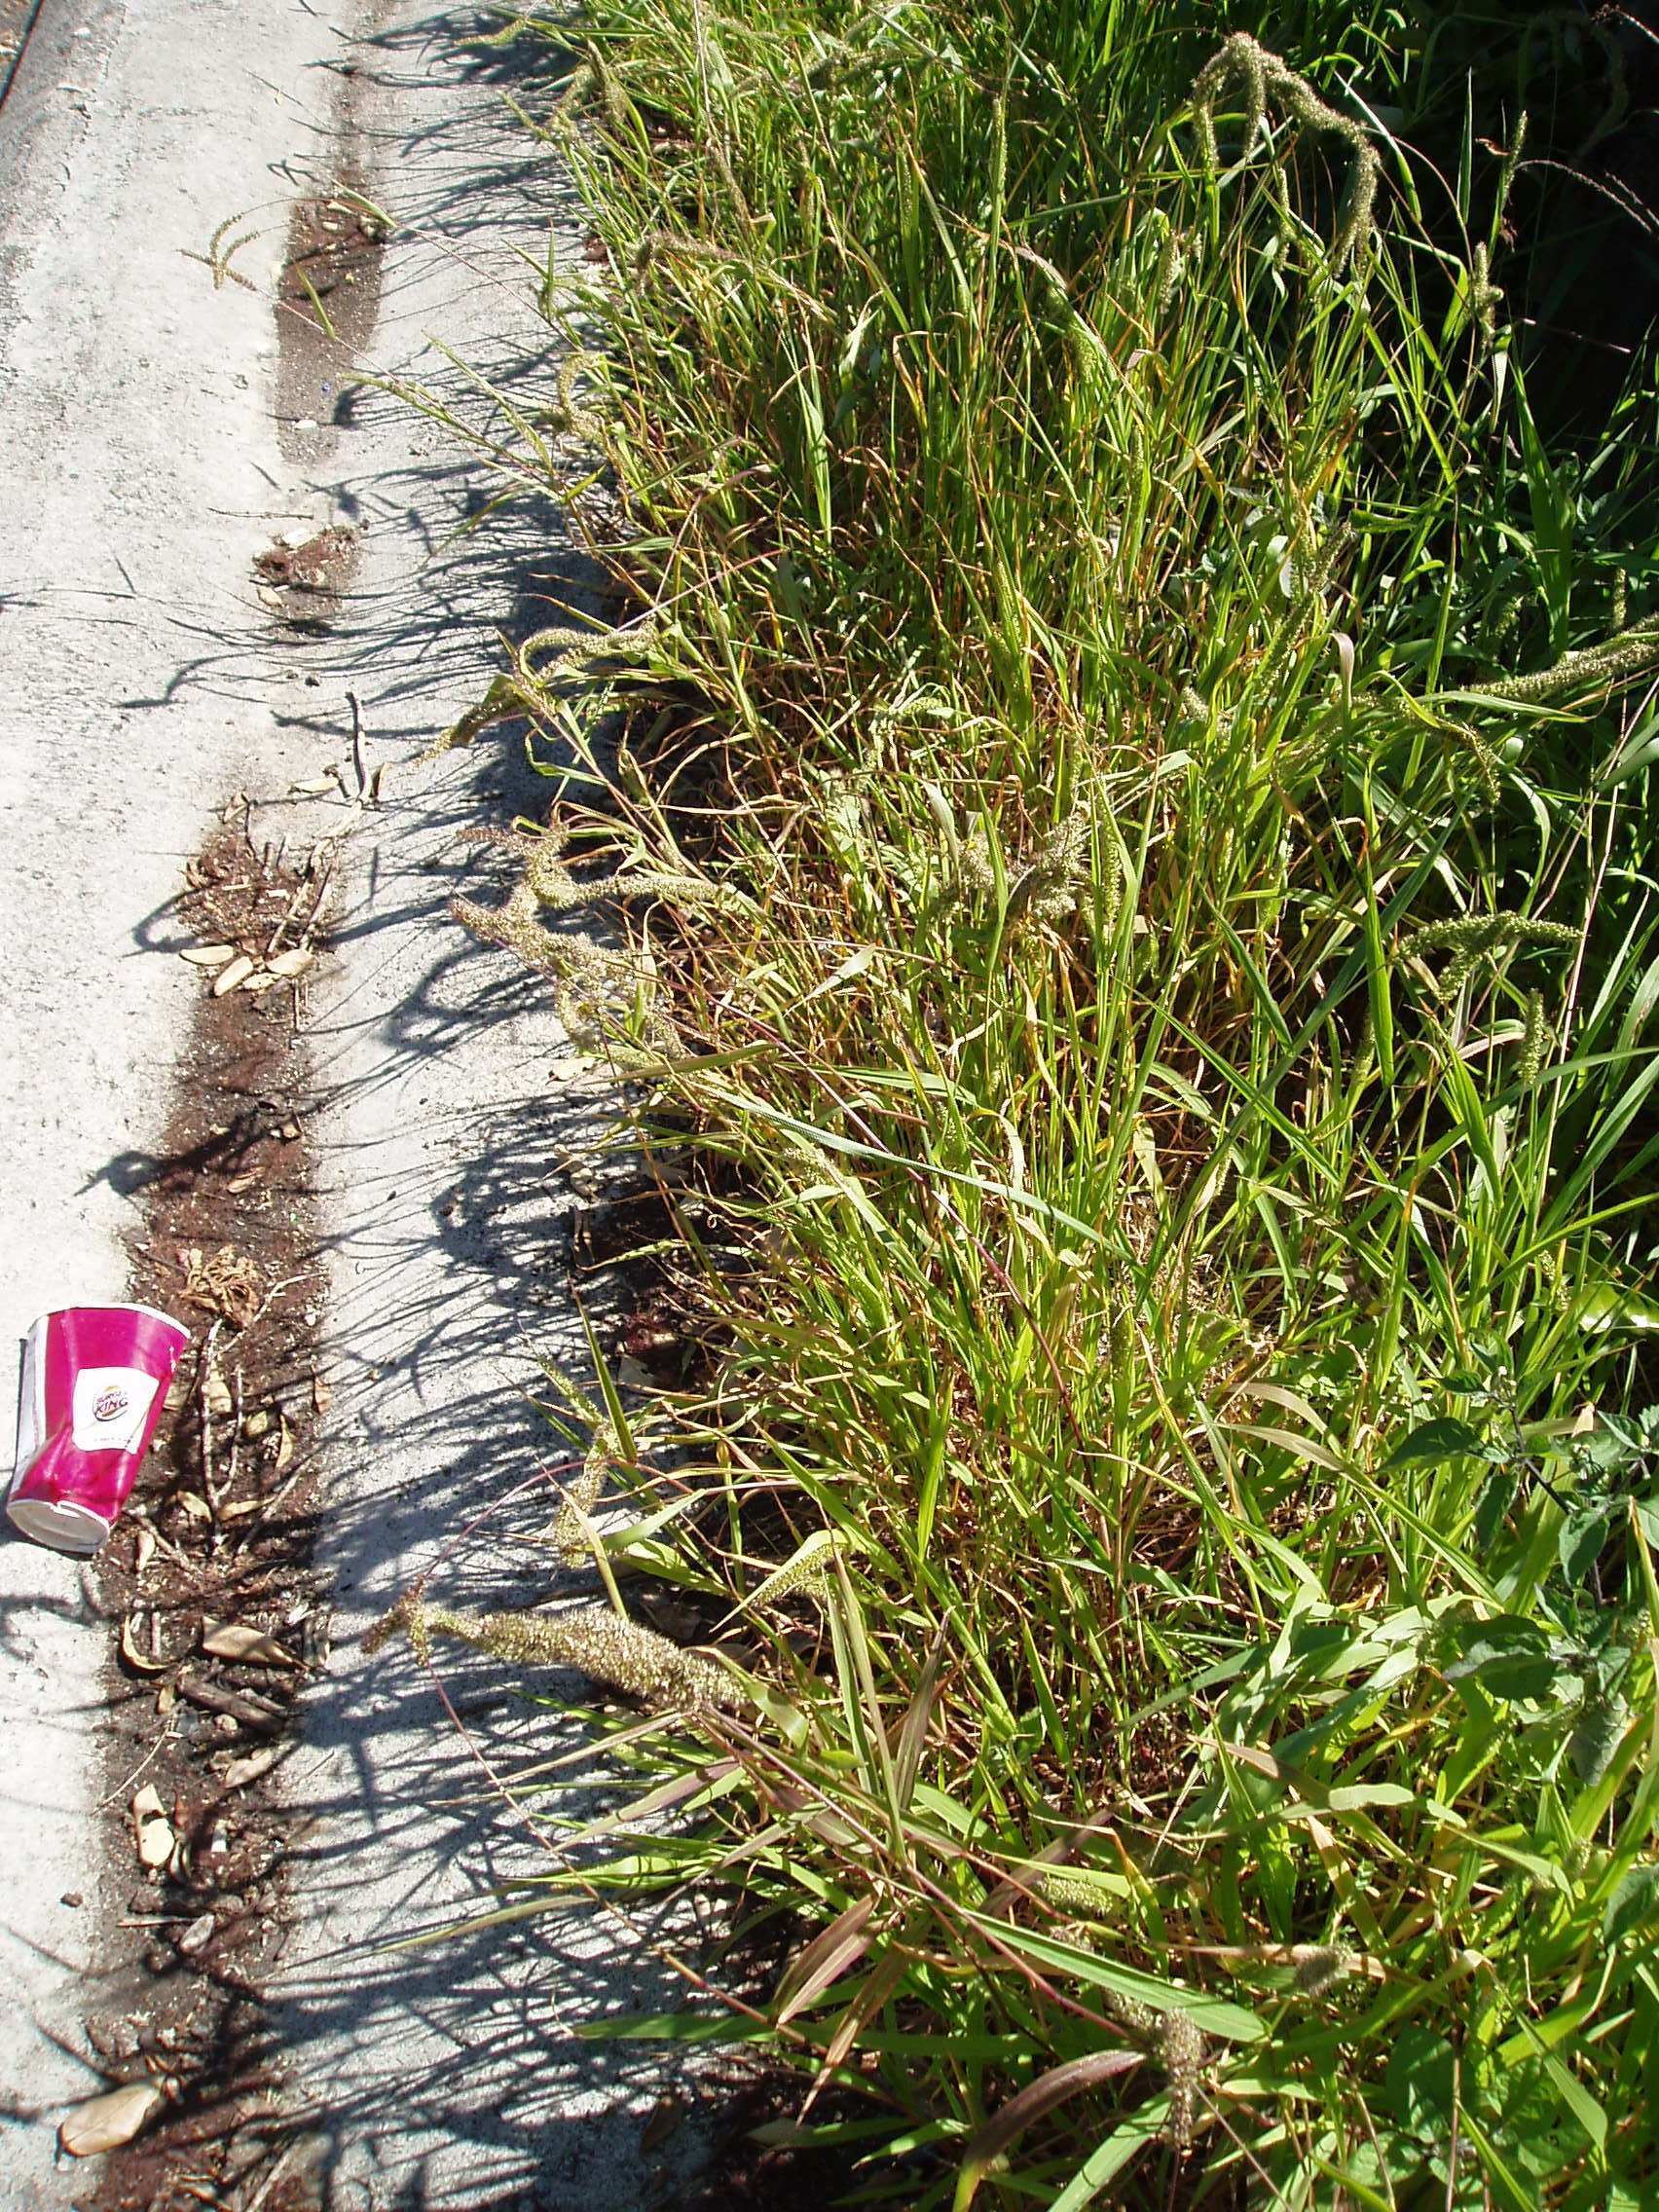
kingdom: Plantae
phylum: Tracheophyta
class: Liliopsida
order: Poales
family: Poaceae
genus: Setaria
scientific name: Setaria verticillata
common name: Hooked bristlegrass
